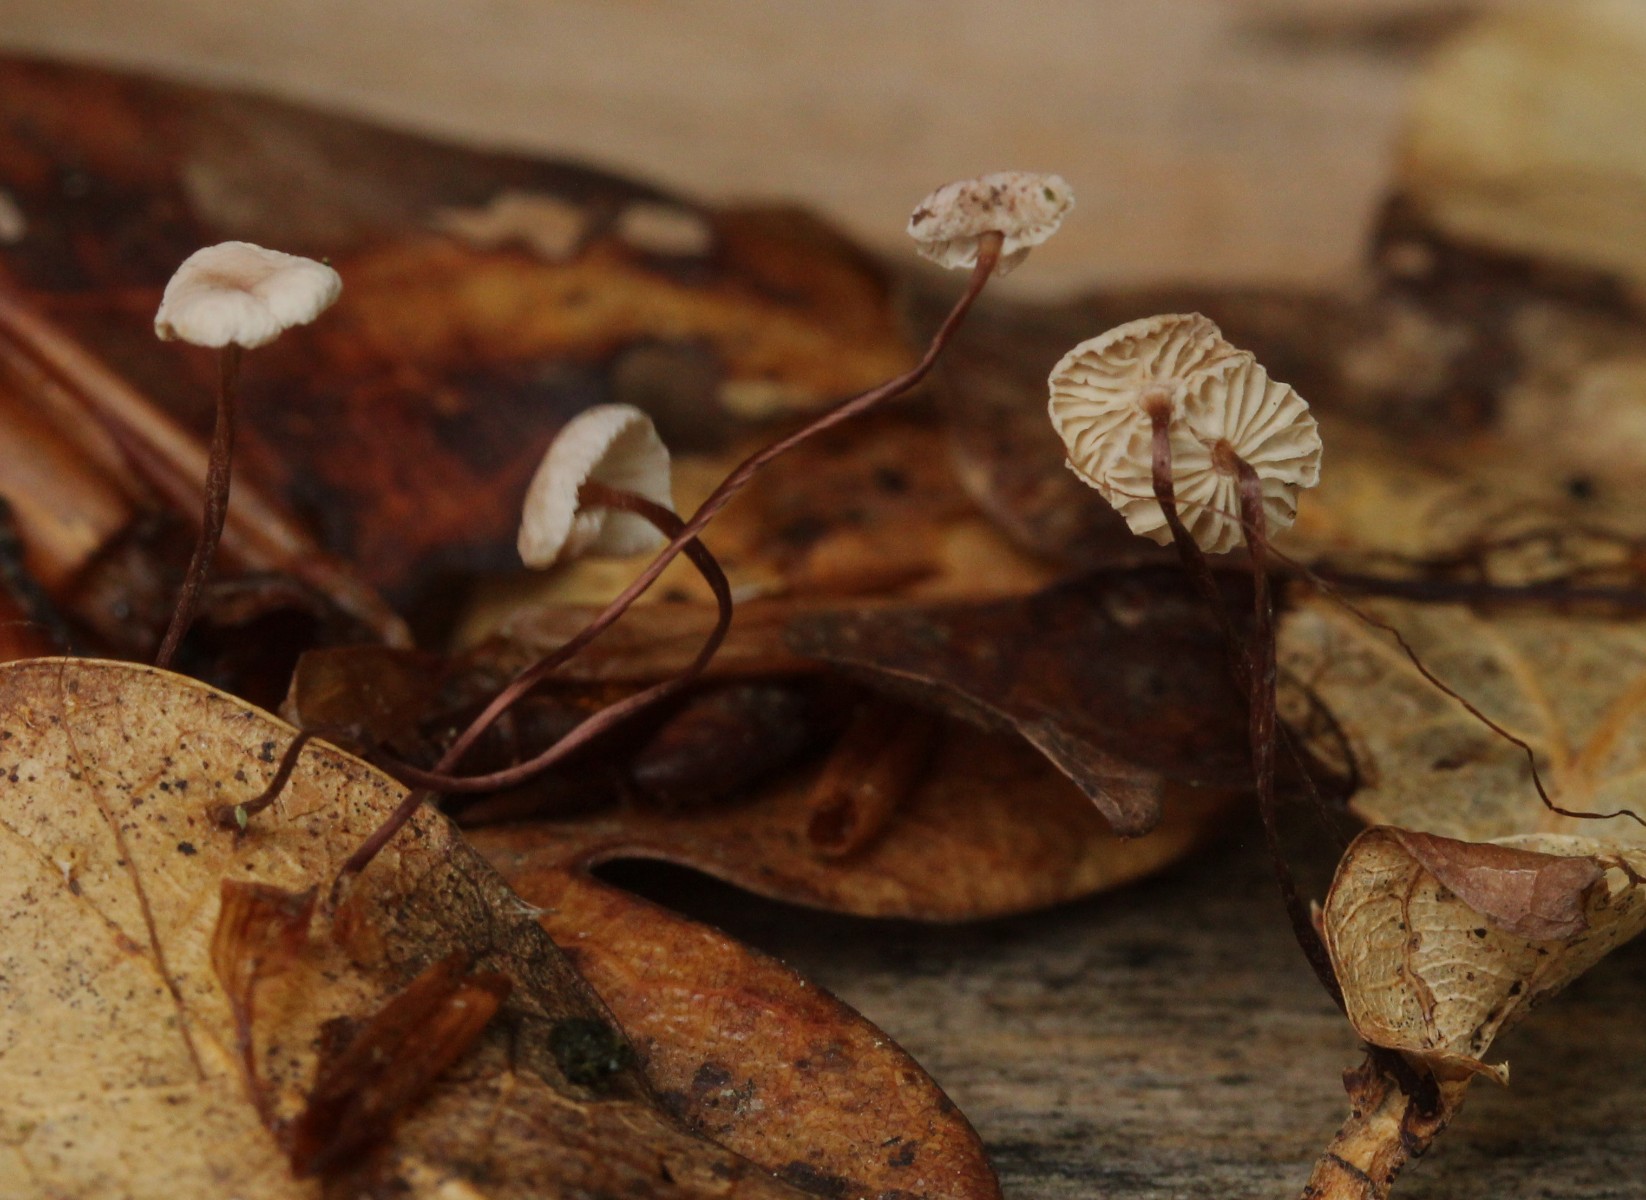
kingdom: Fungi
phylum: Basidiomycota
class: Agaricomycetes
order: Agaricales
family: Omphalotaceae
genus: Collybiopsis
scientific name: Collybiopsis quercophila
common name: egeblads-bruskhat
